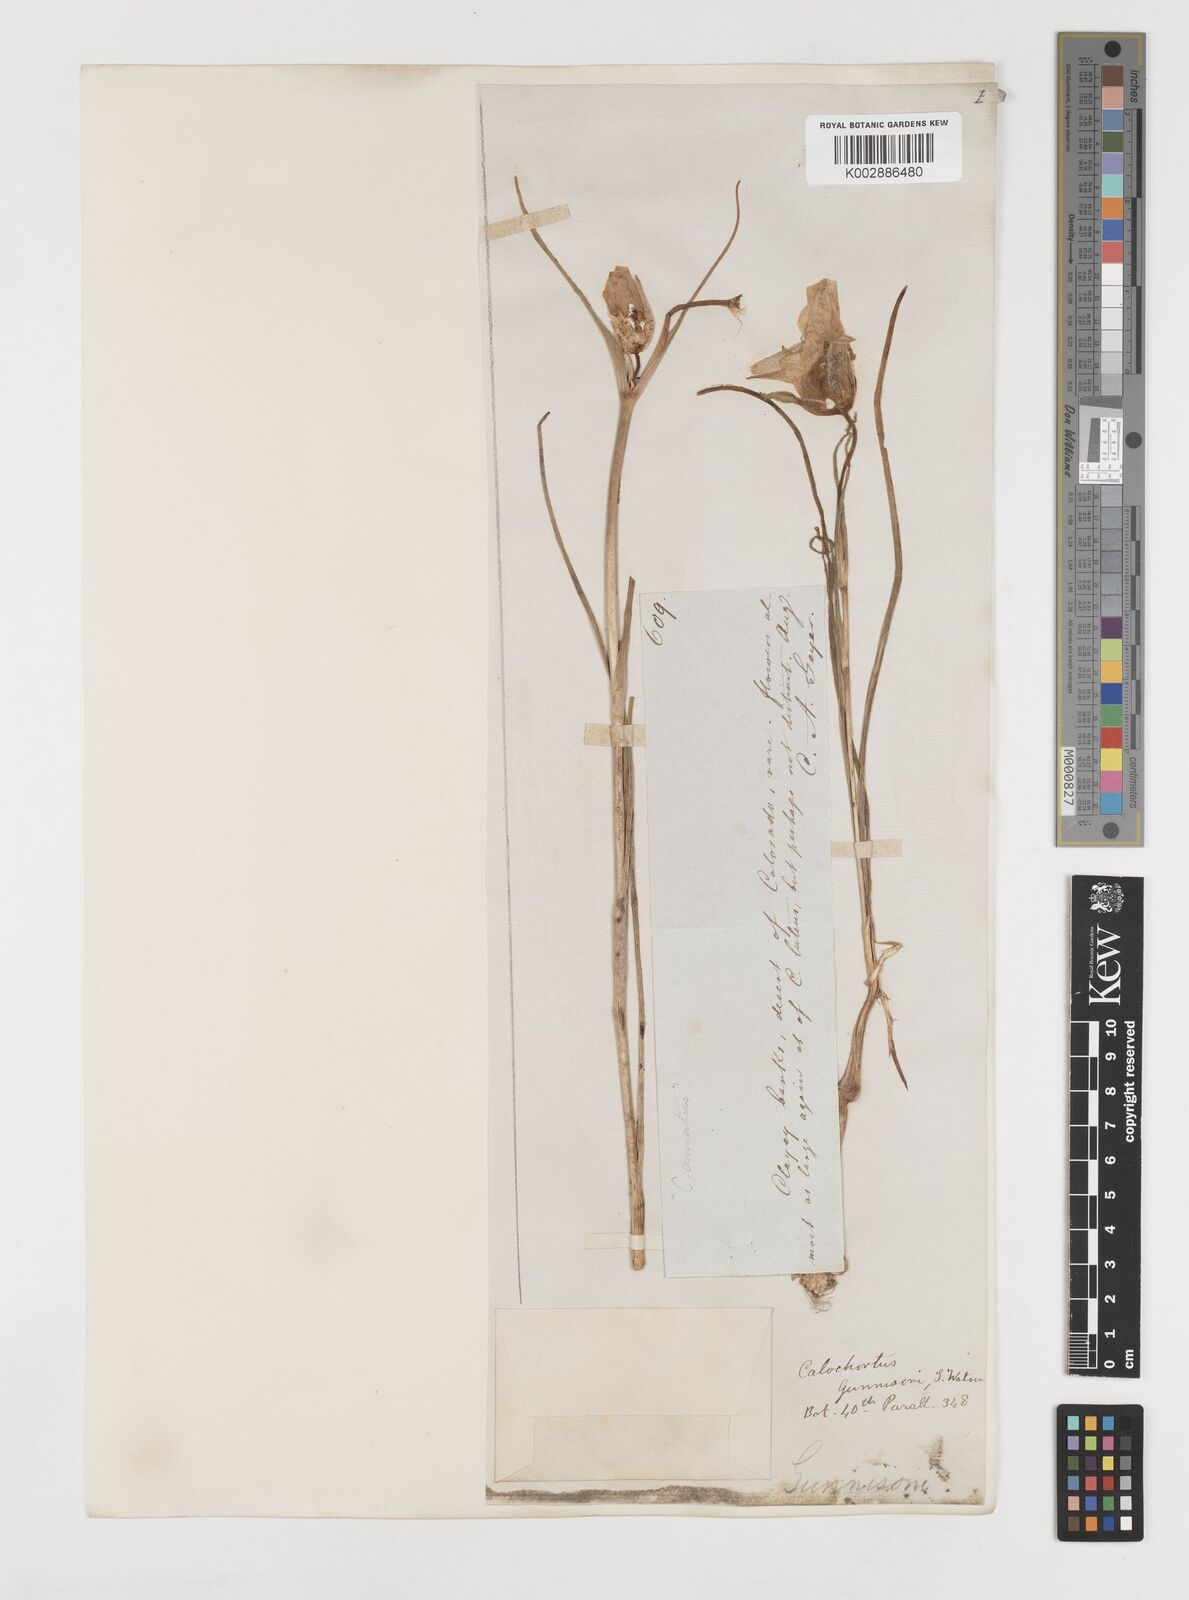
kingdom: Plantae
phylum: Tracheophyta
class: Liliopsida
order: Liliales
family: Liliaceae
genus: Calochortus
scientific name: Calochortus gunnisonii
